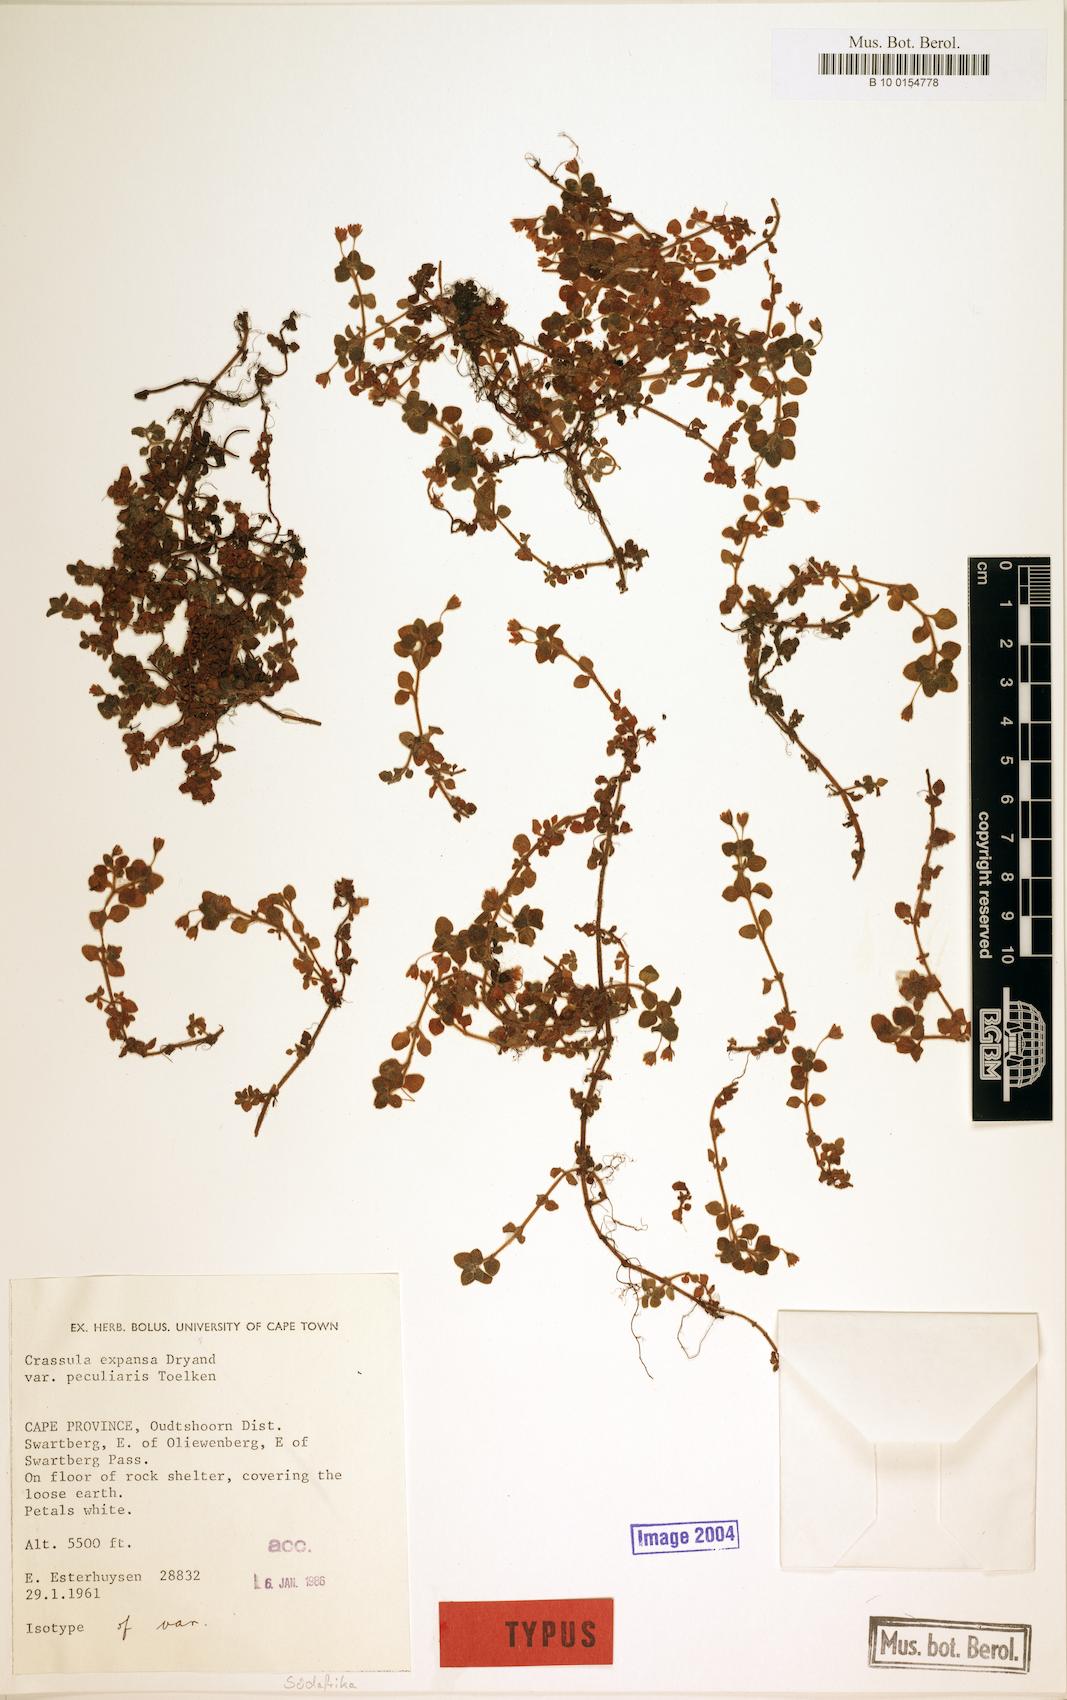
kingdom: Plantae
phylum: Tracheophyta
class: Magnoliopsida
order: Saxifragales
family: Crassulaceae
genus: Crassula
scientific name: Crassula peculiaris
